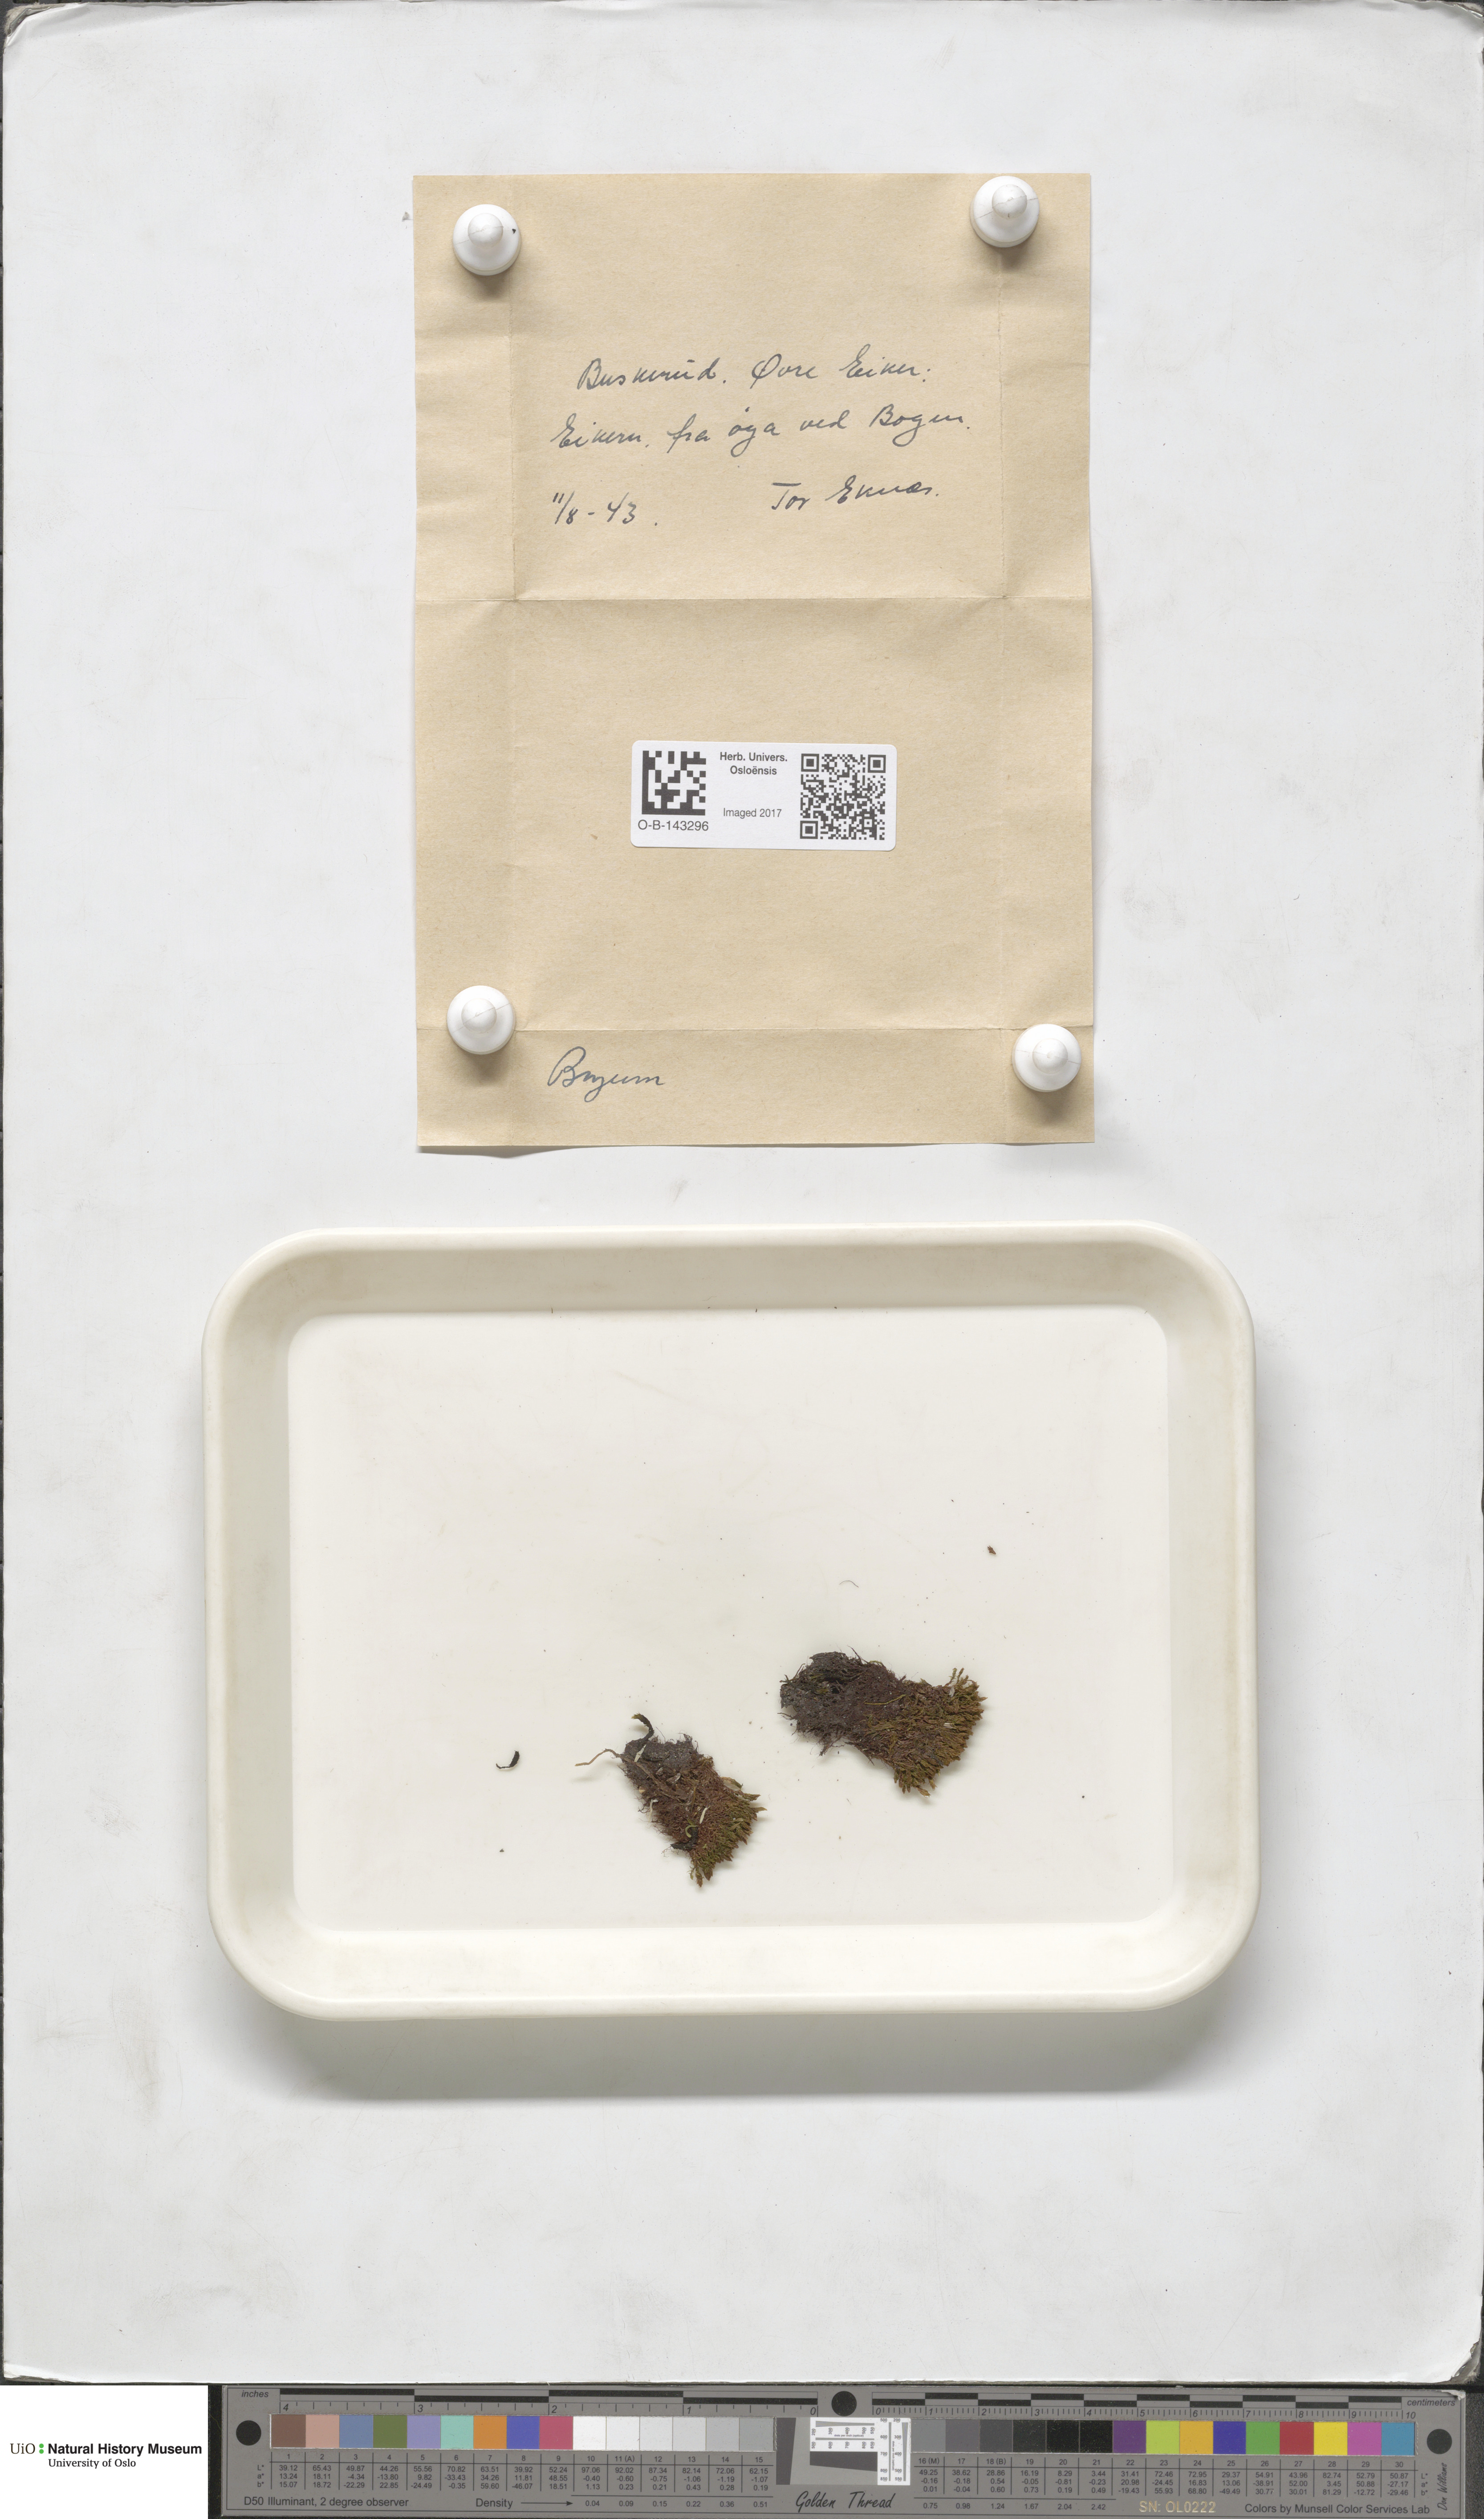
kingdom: Plantae
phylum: Bryophyta
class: Bryopsida
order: Bryales
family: Bryaceae
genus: Bryum
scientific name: Bryum
